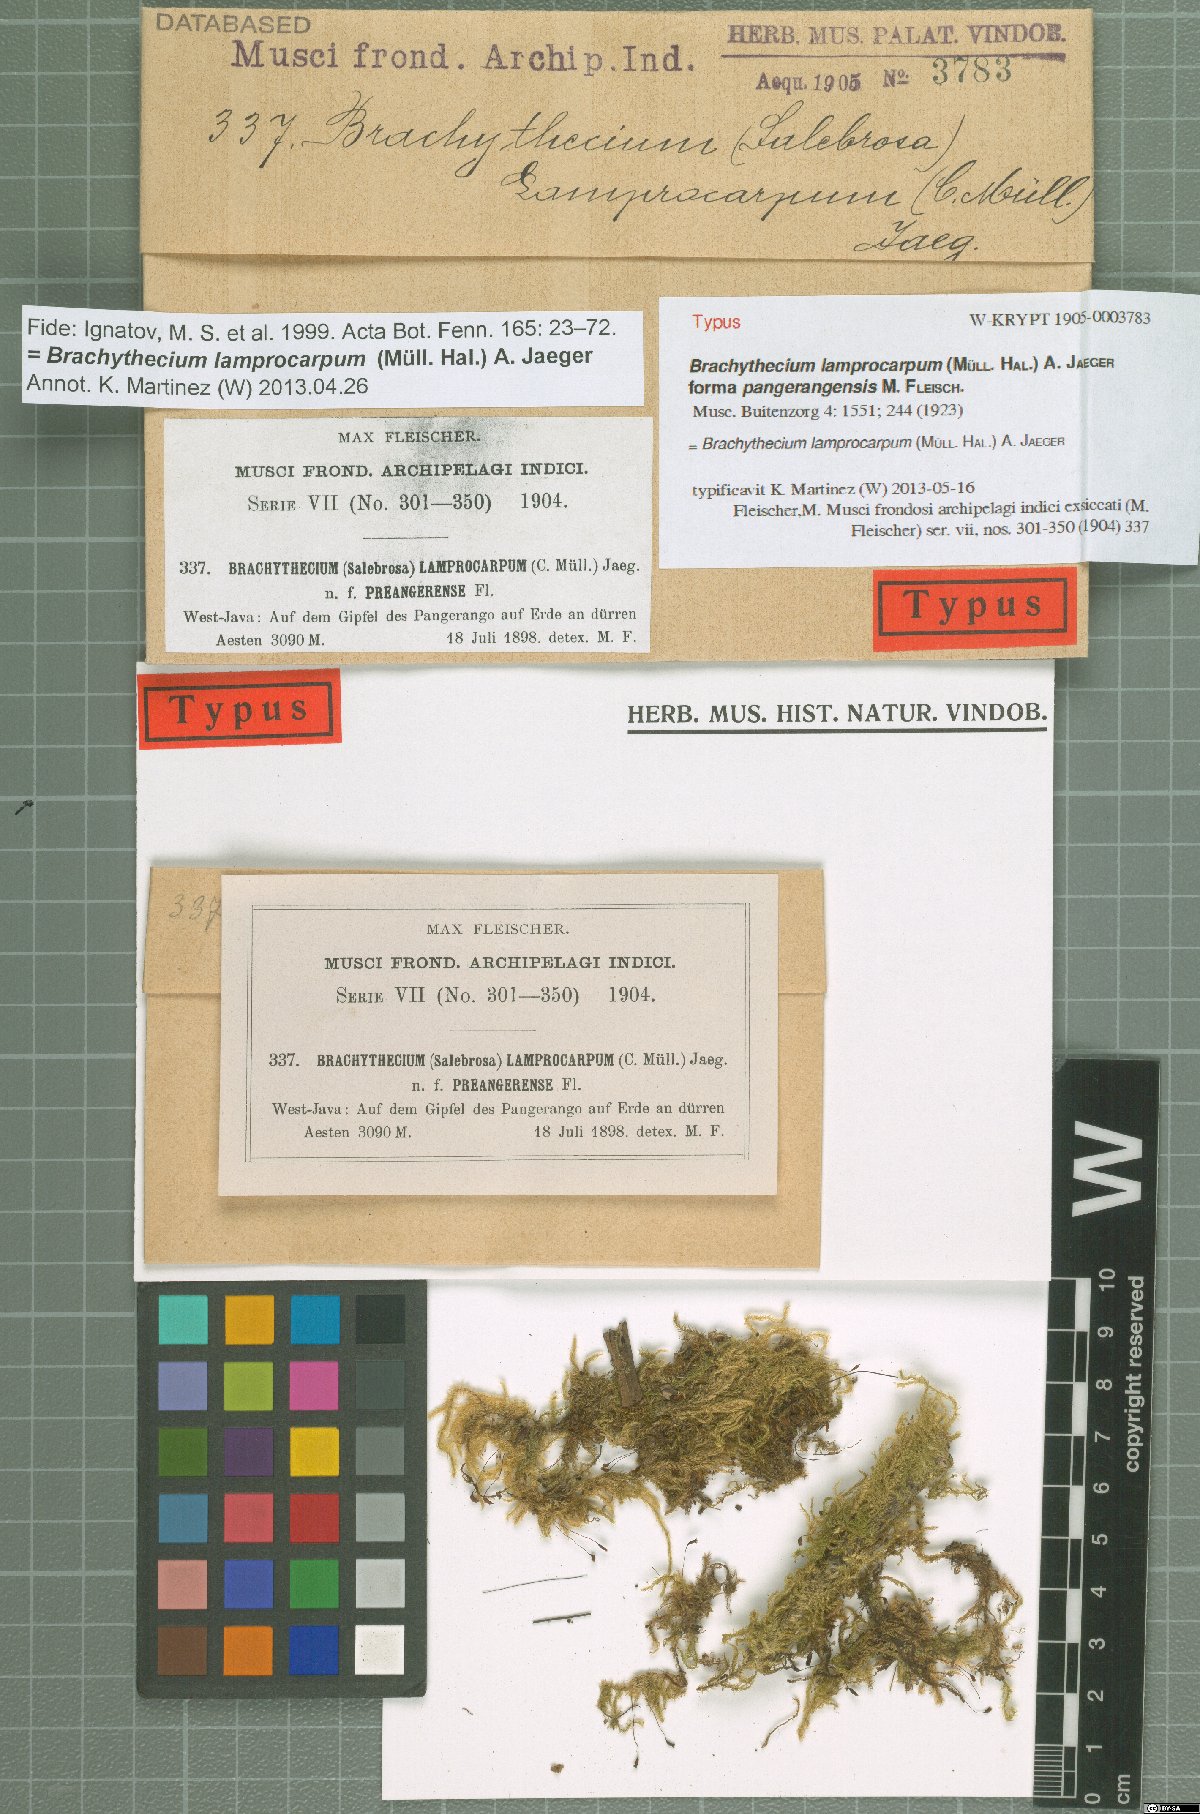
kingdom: Plantae
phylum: Bryophyta
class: Bryopsida
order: Hypnales
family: Brachytheciaceae
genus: Brachythecium
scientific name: Brachythecium lamprocarpum
